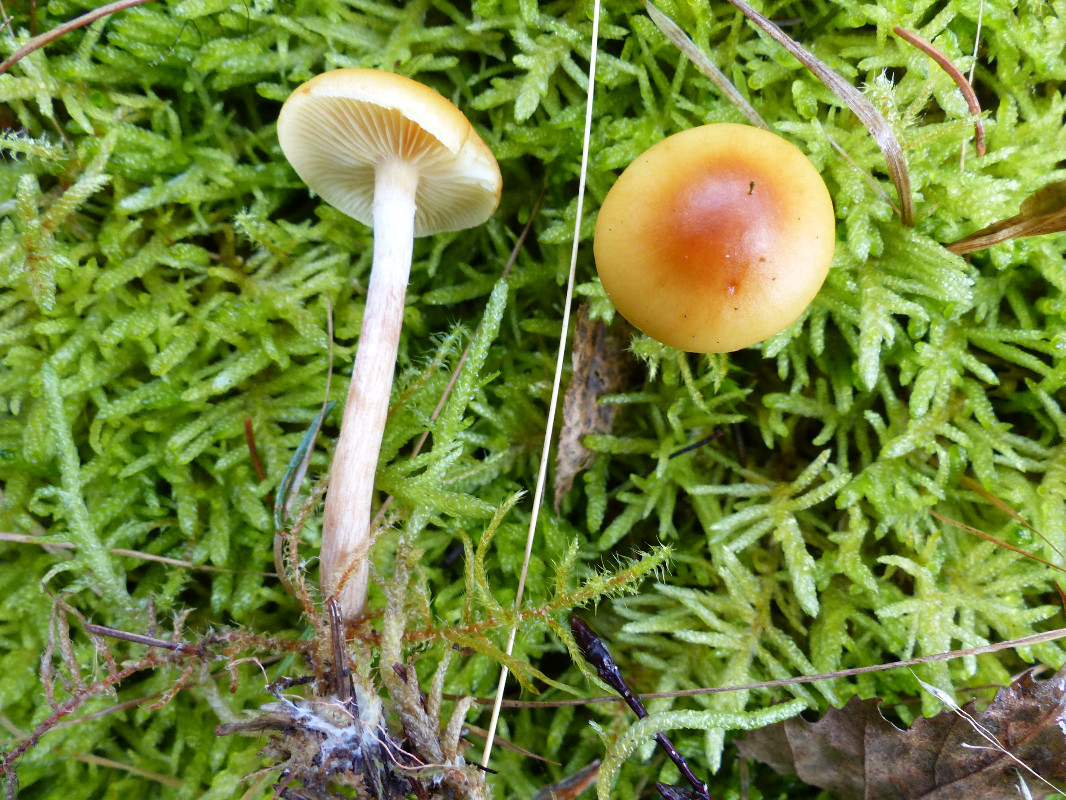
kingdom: Fungi
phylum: Basidiomycota
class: Agaricomycetes
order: Agaricales
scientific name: Agaricales
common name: champignonordenen
